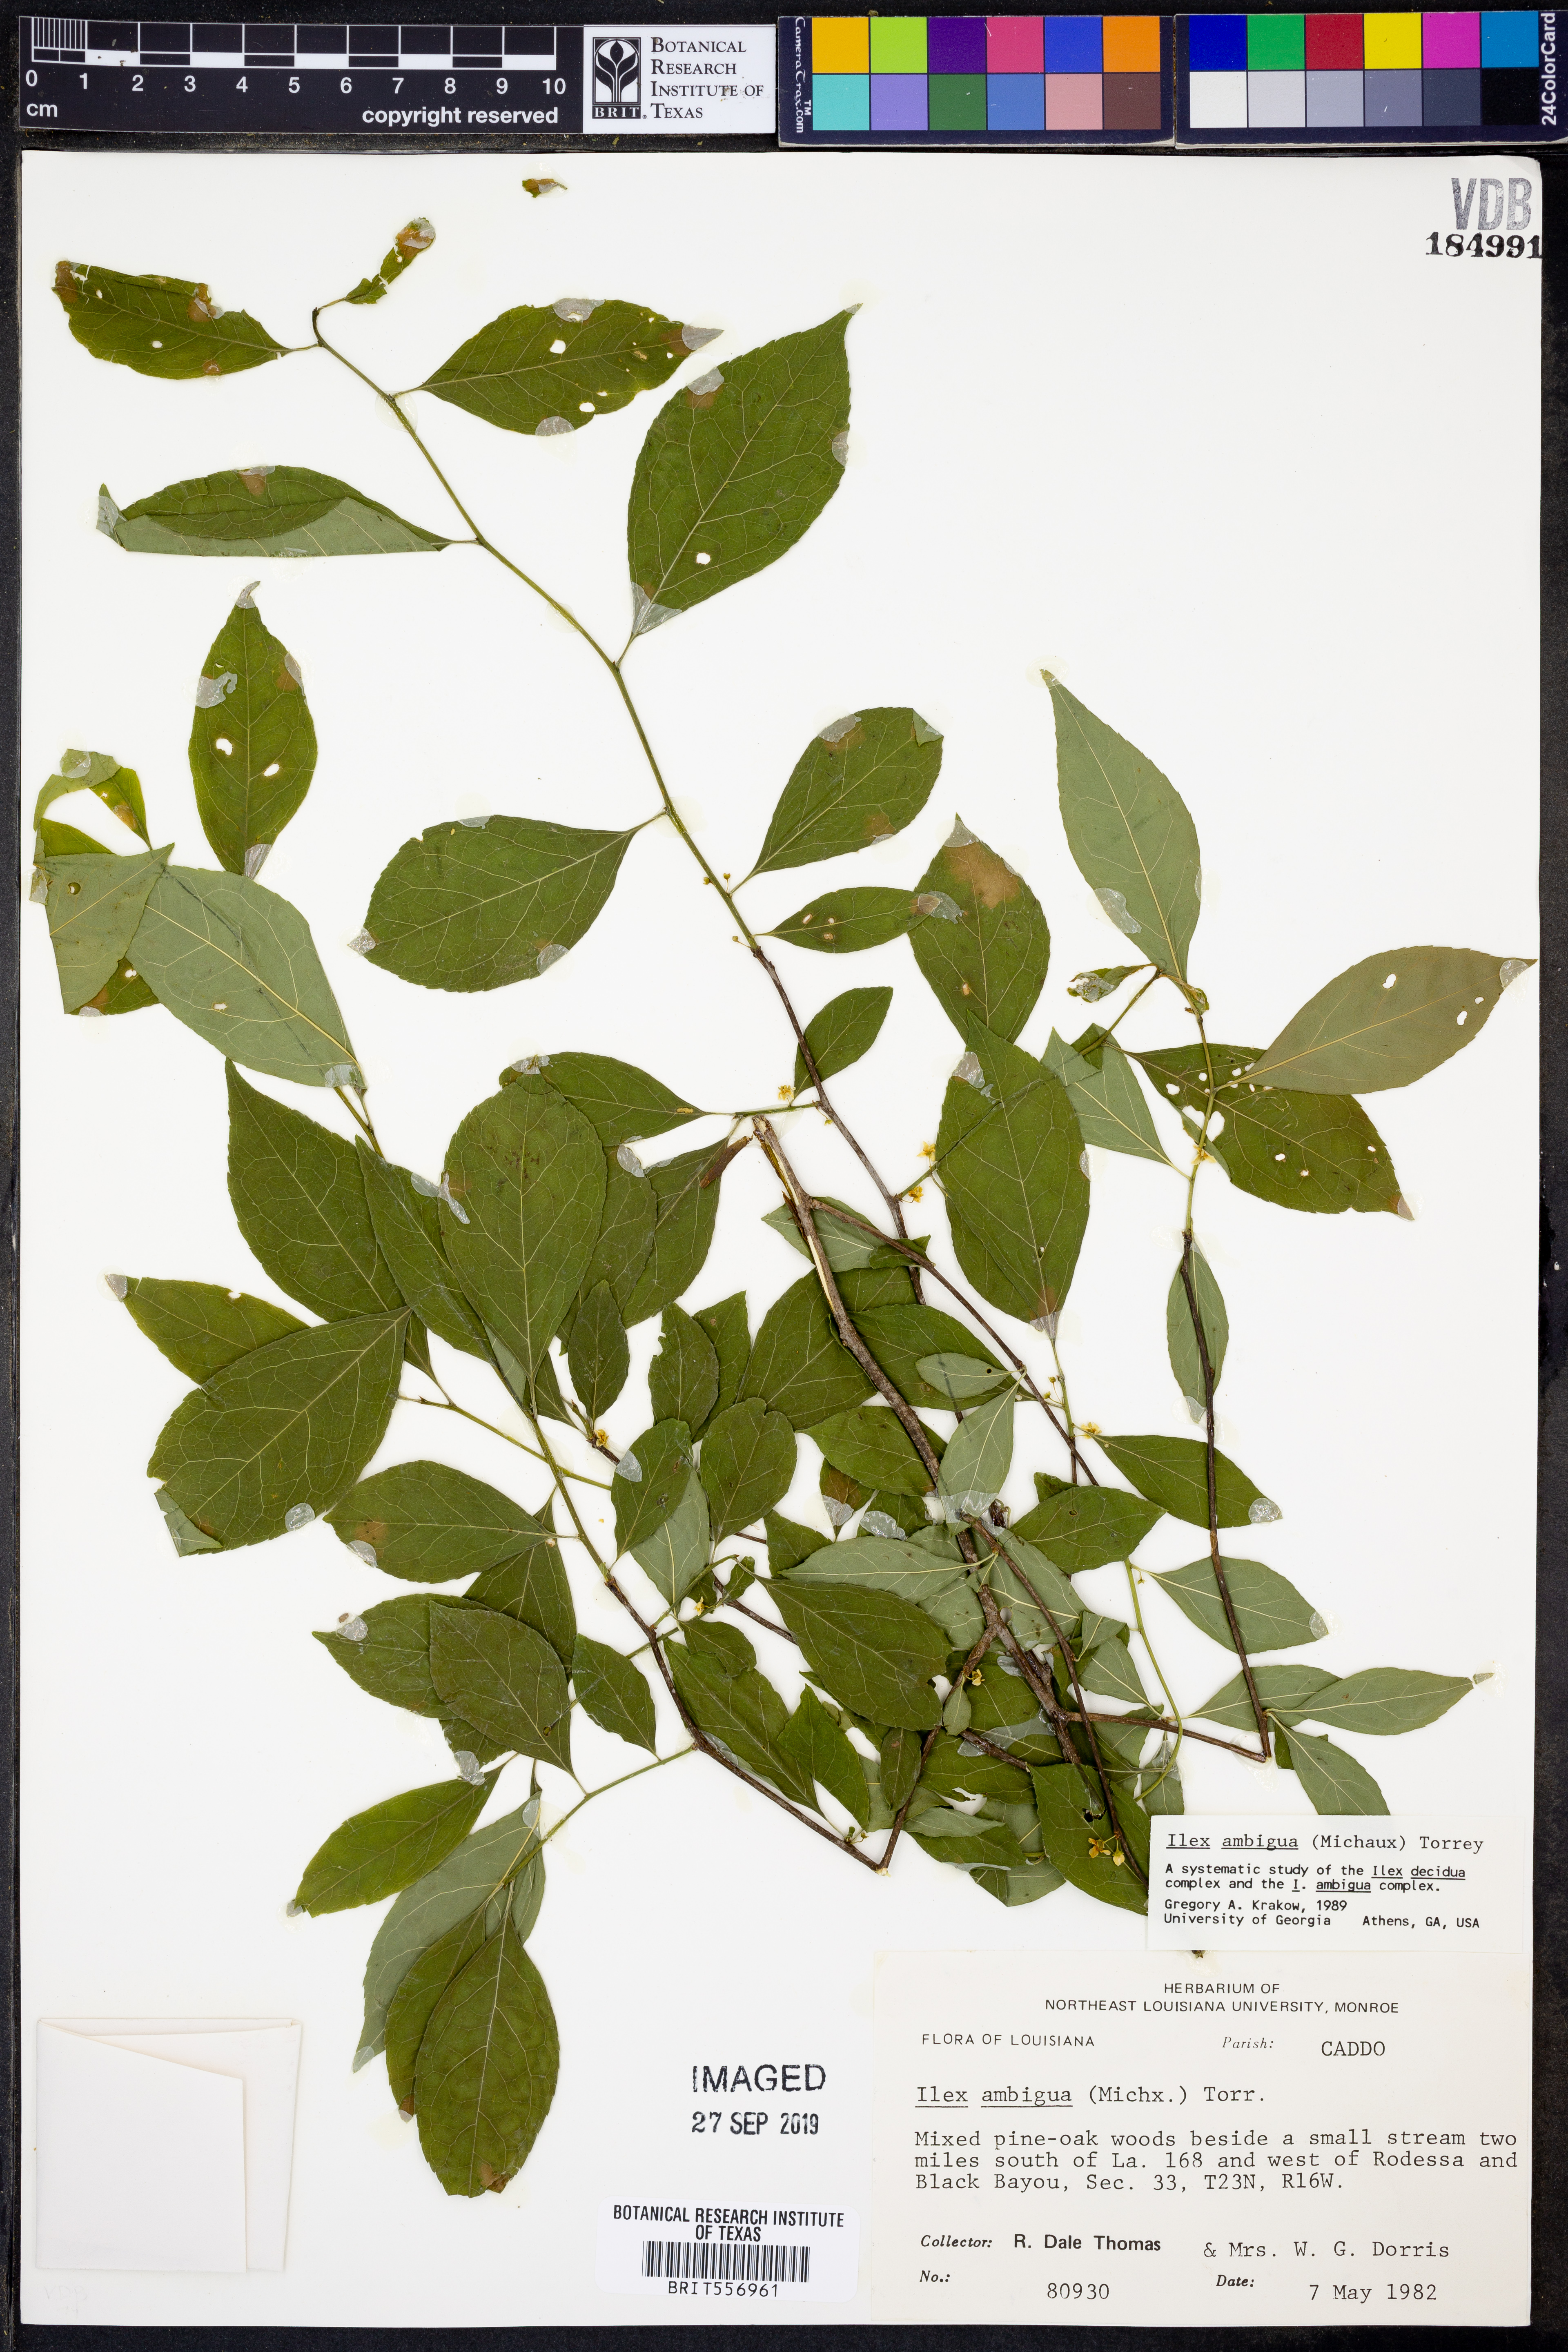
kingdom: Plantae
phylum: Tracheophyta
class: Magnoliopsida
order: Aquifoliales
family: Aquifoliaceae
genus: Ilex
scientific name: Ilex ambigua
